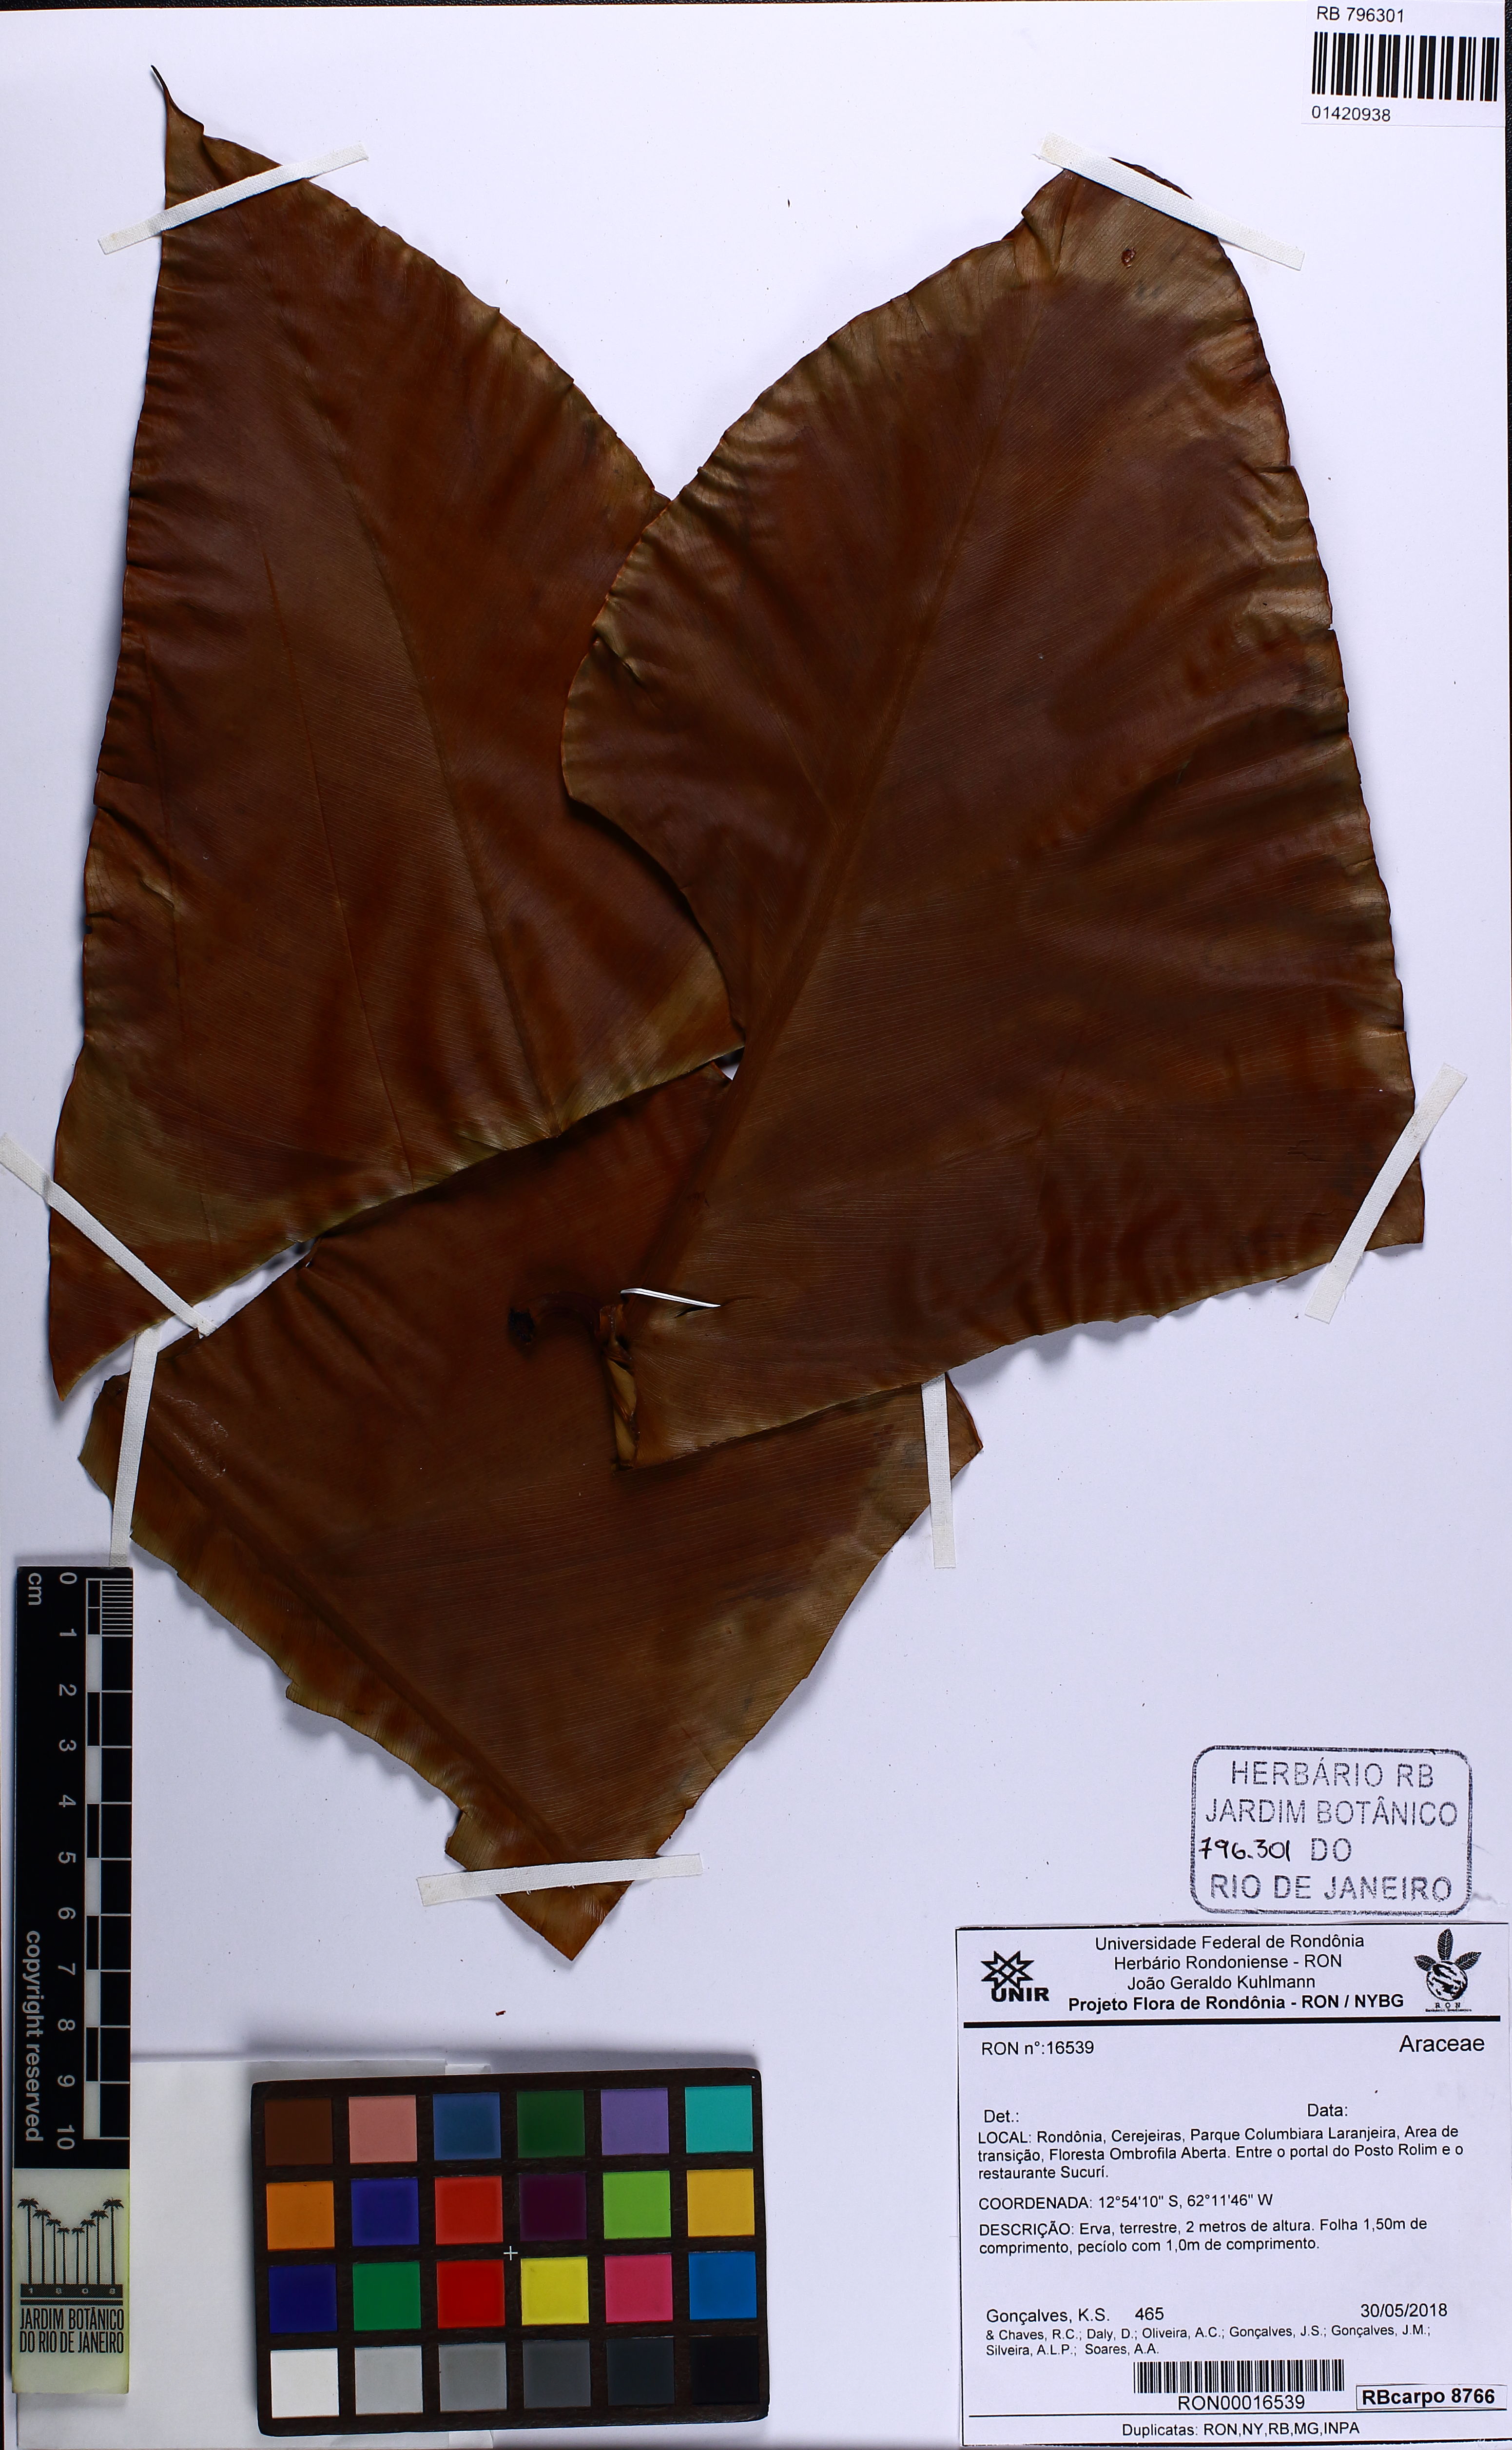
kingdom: Plantae
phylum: Tracheophyta
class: Liliopsida
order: Alismatales
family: Araceae
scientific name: Araceae
